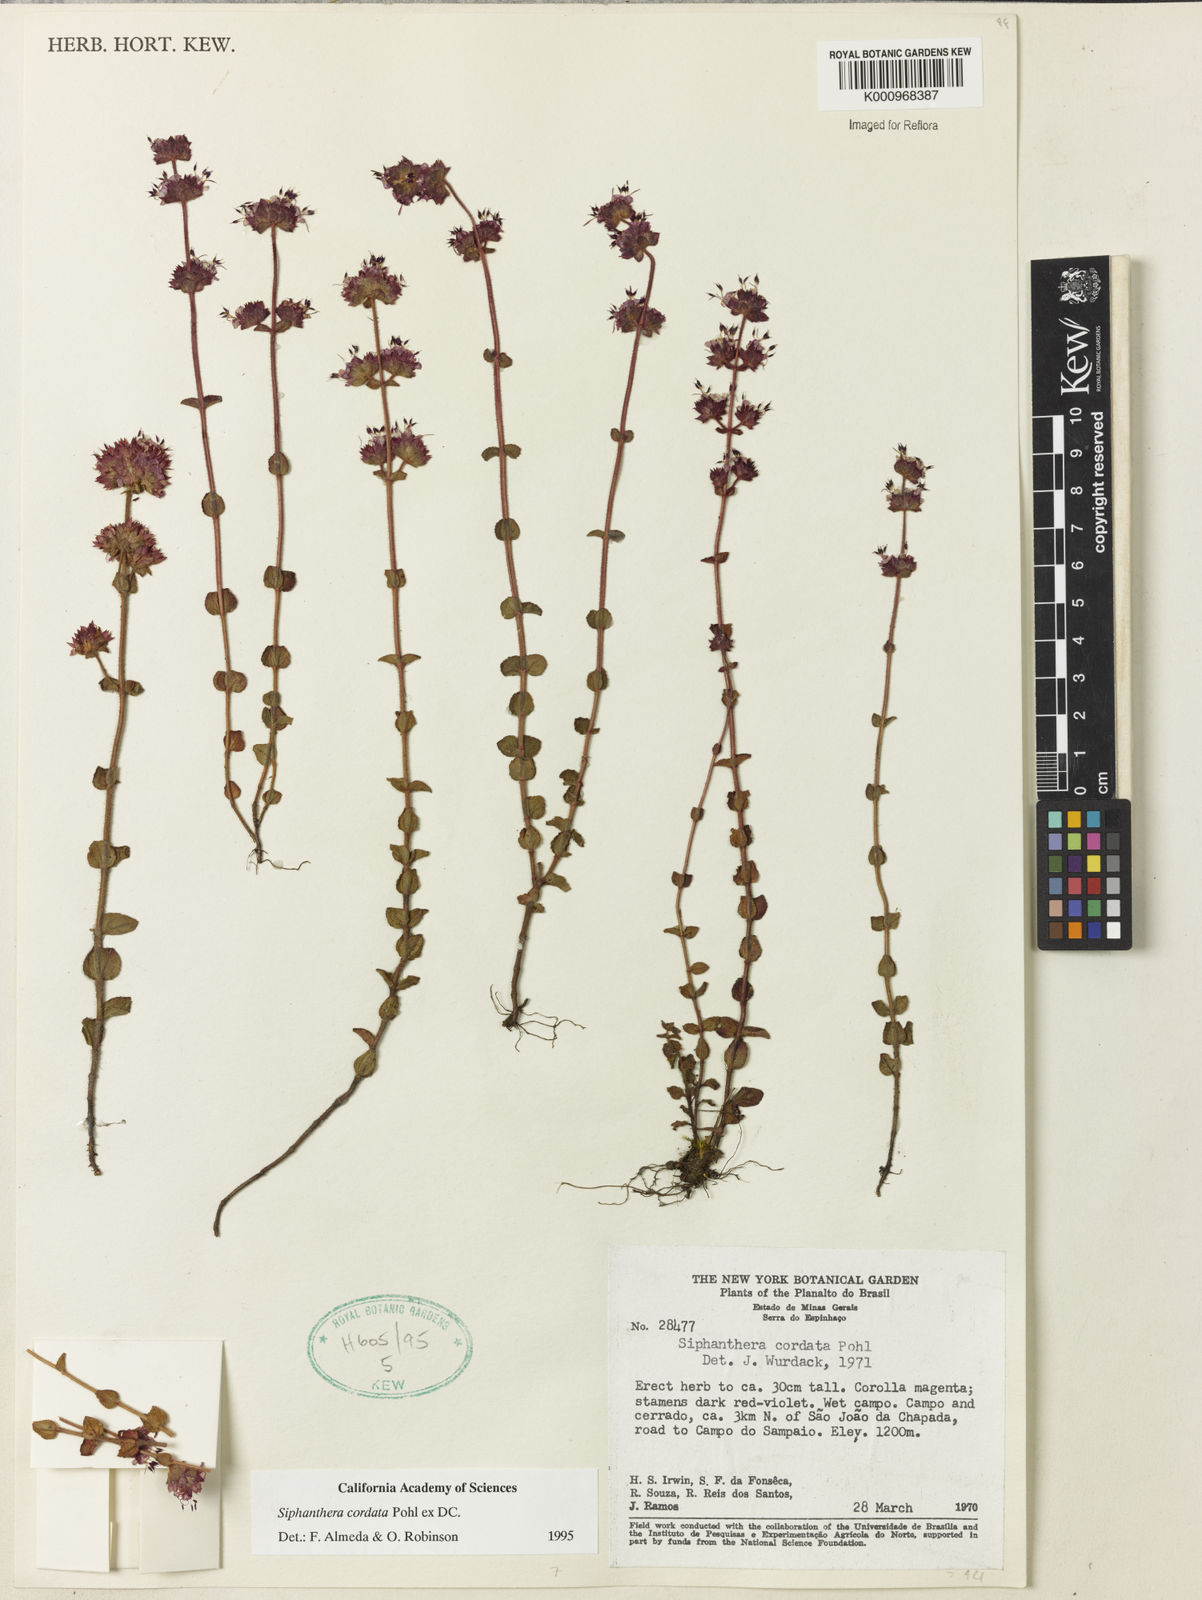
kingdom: Plantae
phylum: Tracheophyta
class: Magnoliopsida
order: Myrtales
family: Melastomataceae
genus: Siphanthera
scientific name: Siphanthera
